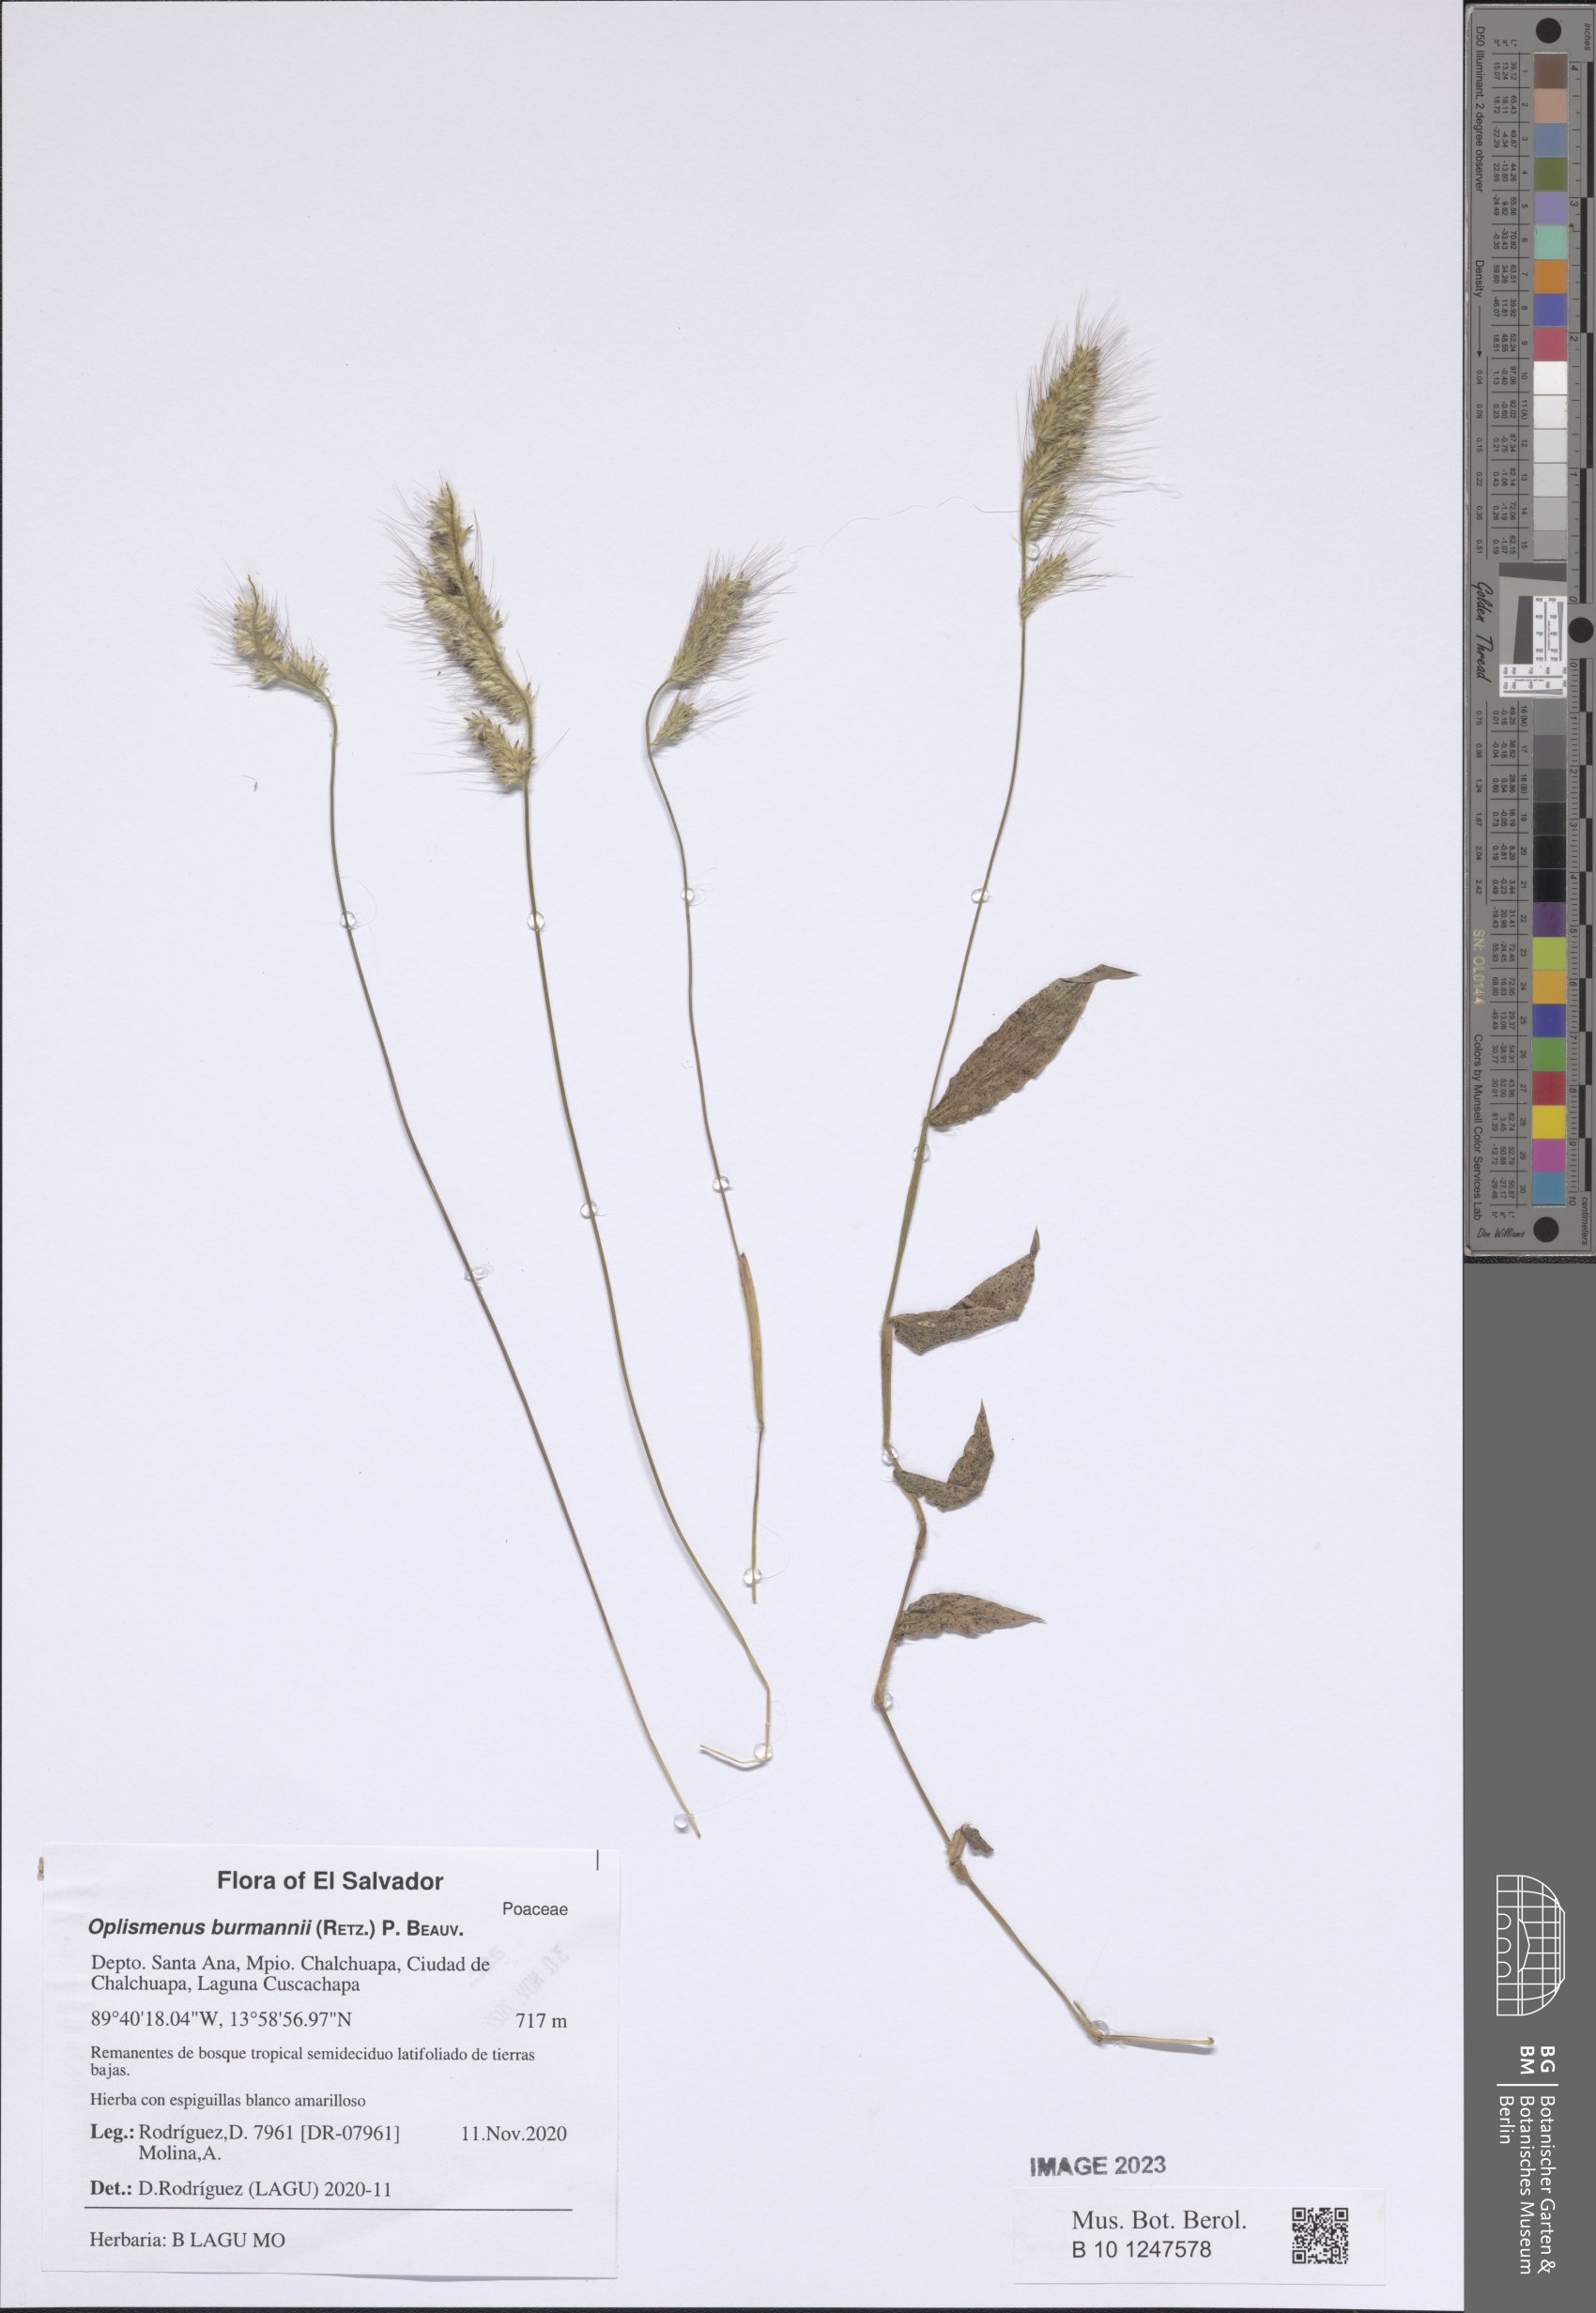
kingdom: Plantae
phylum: Tracheophyta
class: Liliopsida
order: Poales
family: Poaceae
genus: Oplismenus
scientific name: Oplismenus burmanni
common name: Burmann's basketgrass
